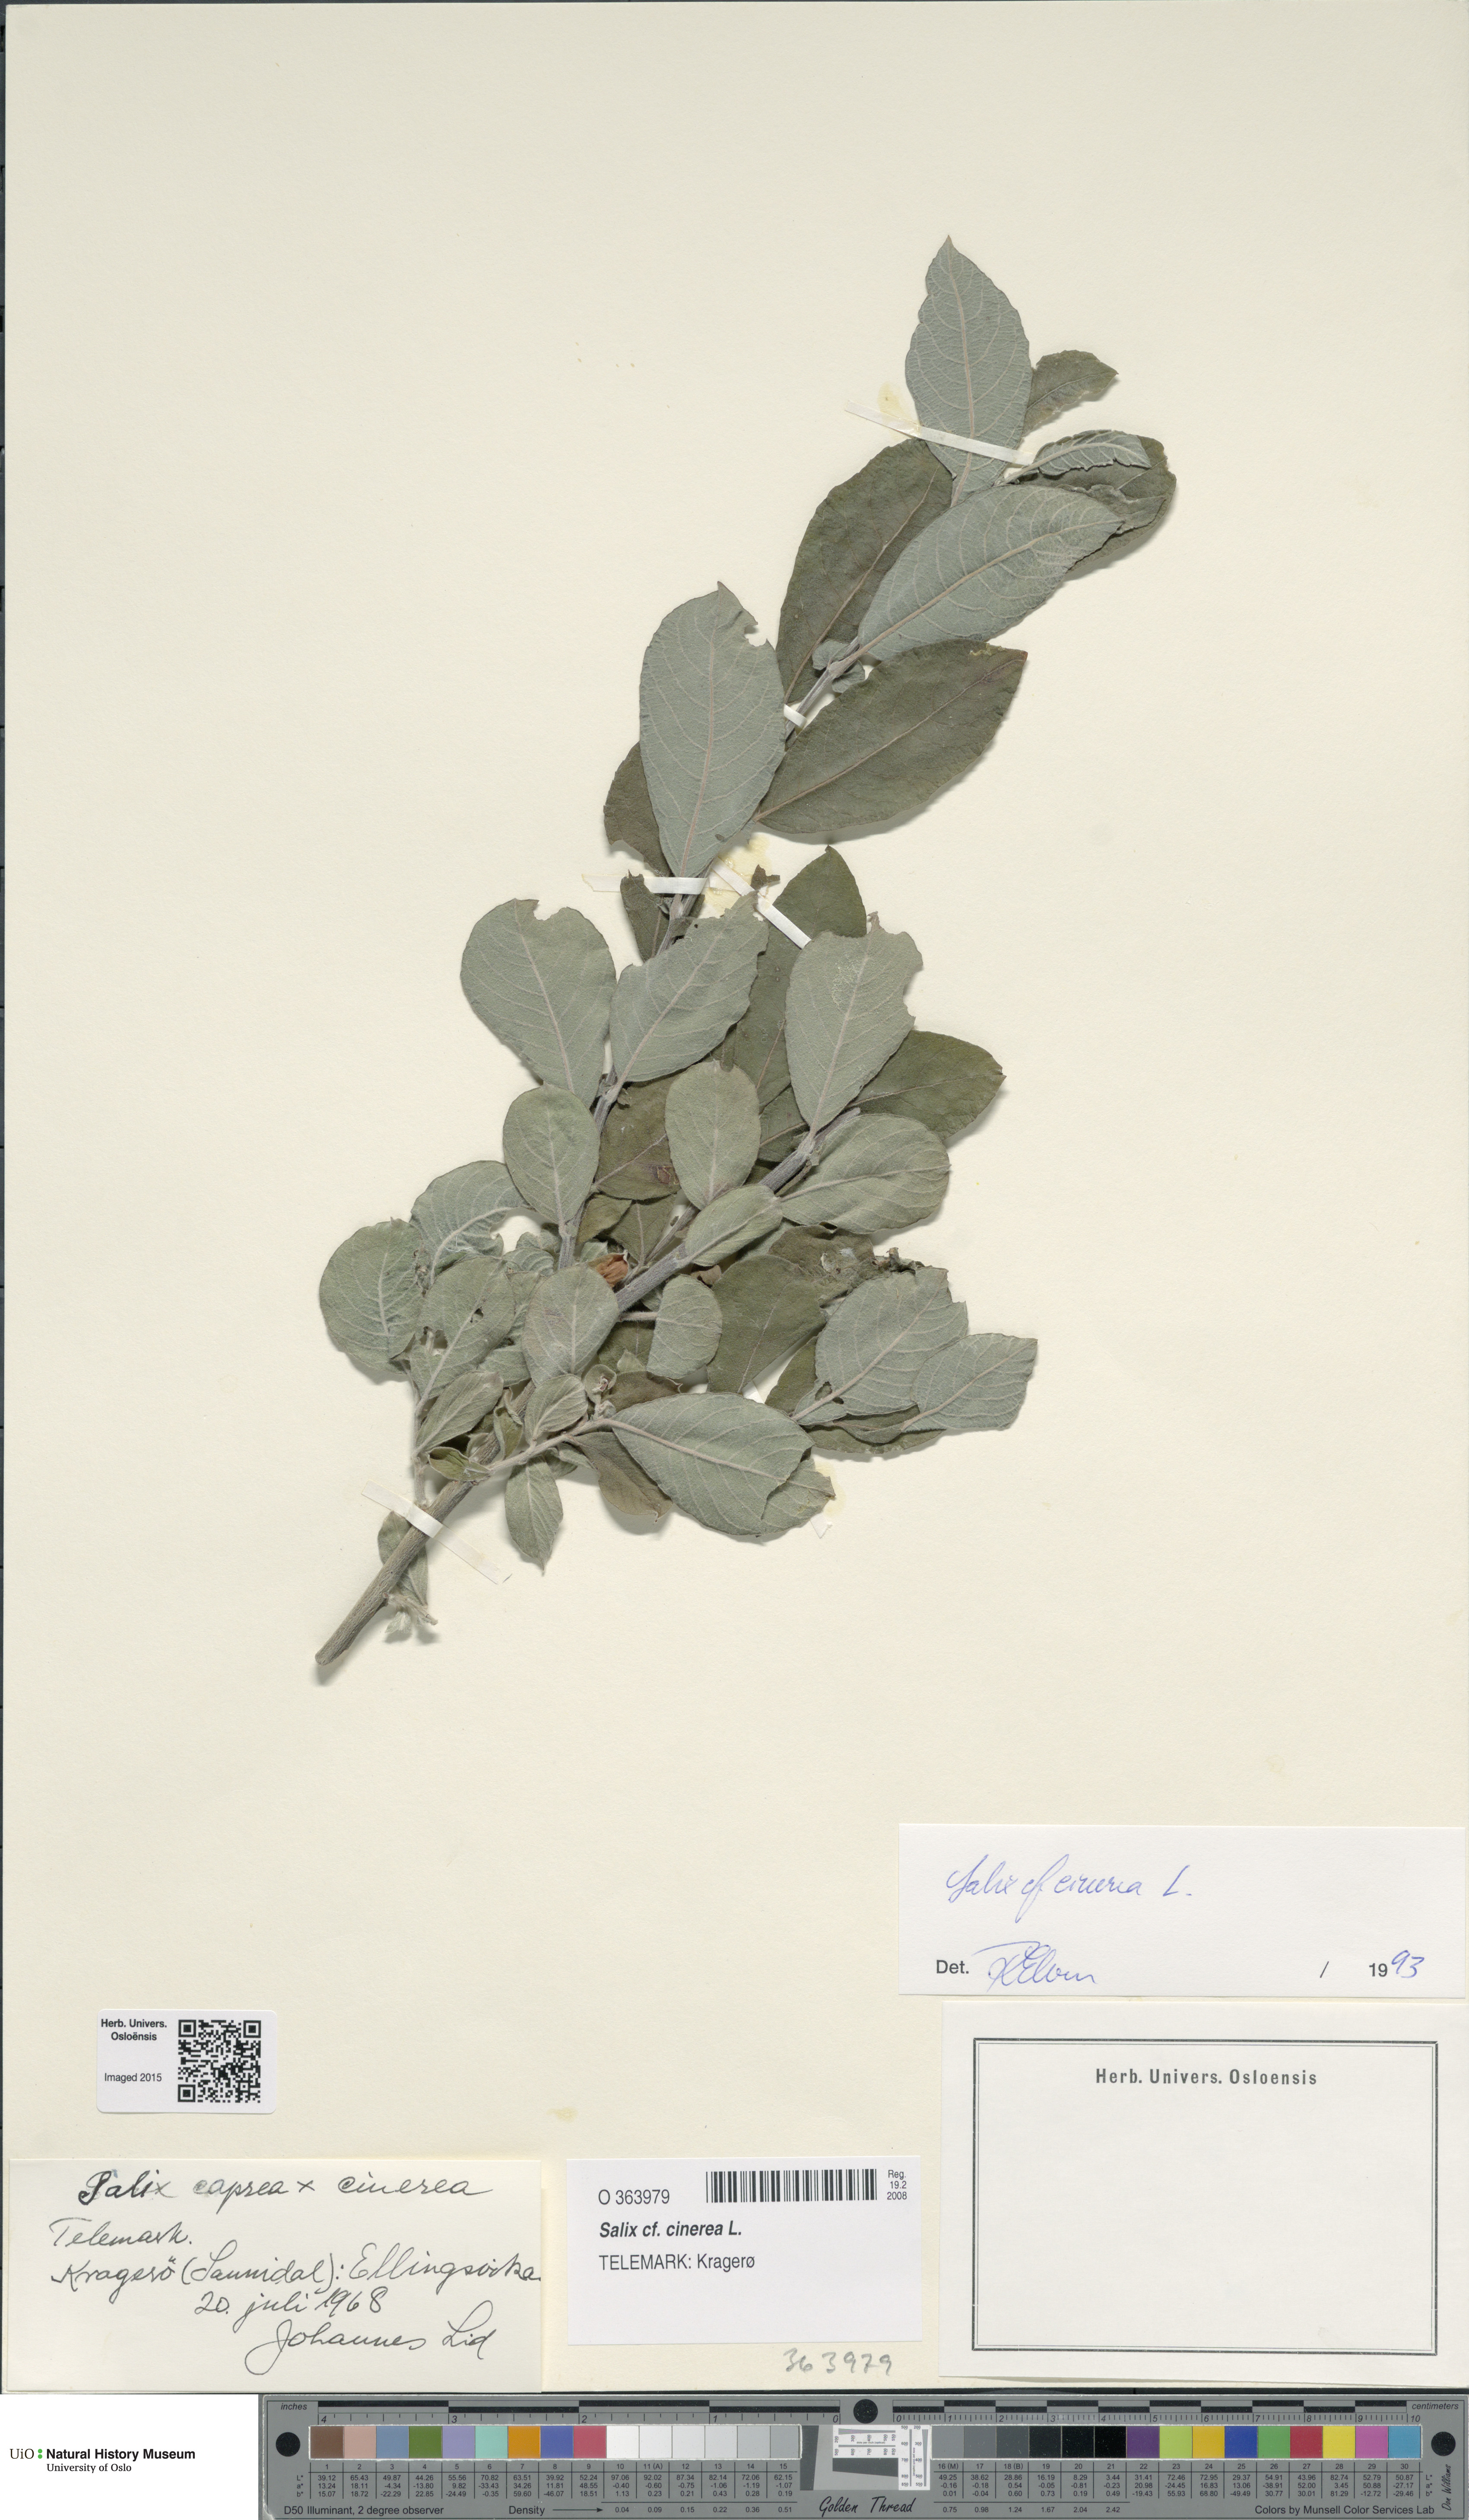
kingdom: Plantae
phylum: Tracheophyta
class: Magnoliopsida
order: Malpighiales
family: Salicaceae
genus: Salix
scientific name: Salix cinerea
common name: Common sallow
